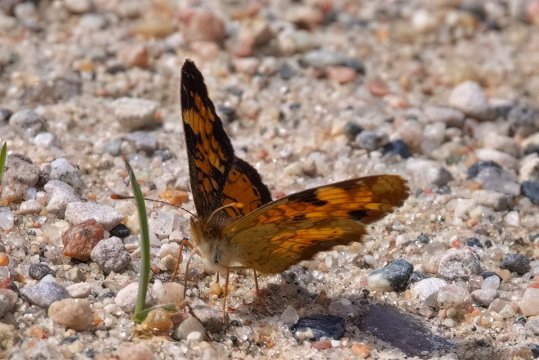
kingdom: Animalia
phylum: Arthropoda
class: Insecta
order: Lepidoptera
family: Nymphalidae
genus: Phyciodes
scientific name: Phyciodes tharos
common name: Northern Crescent
